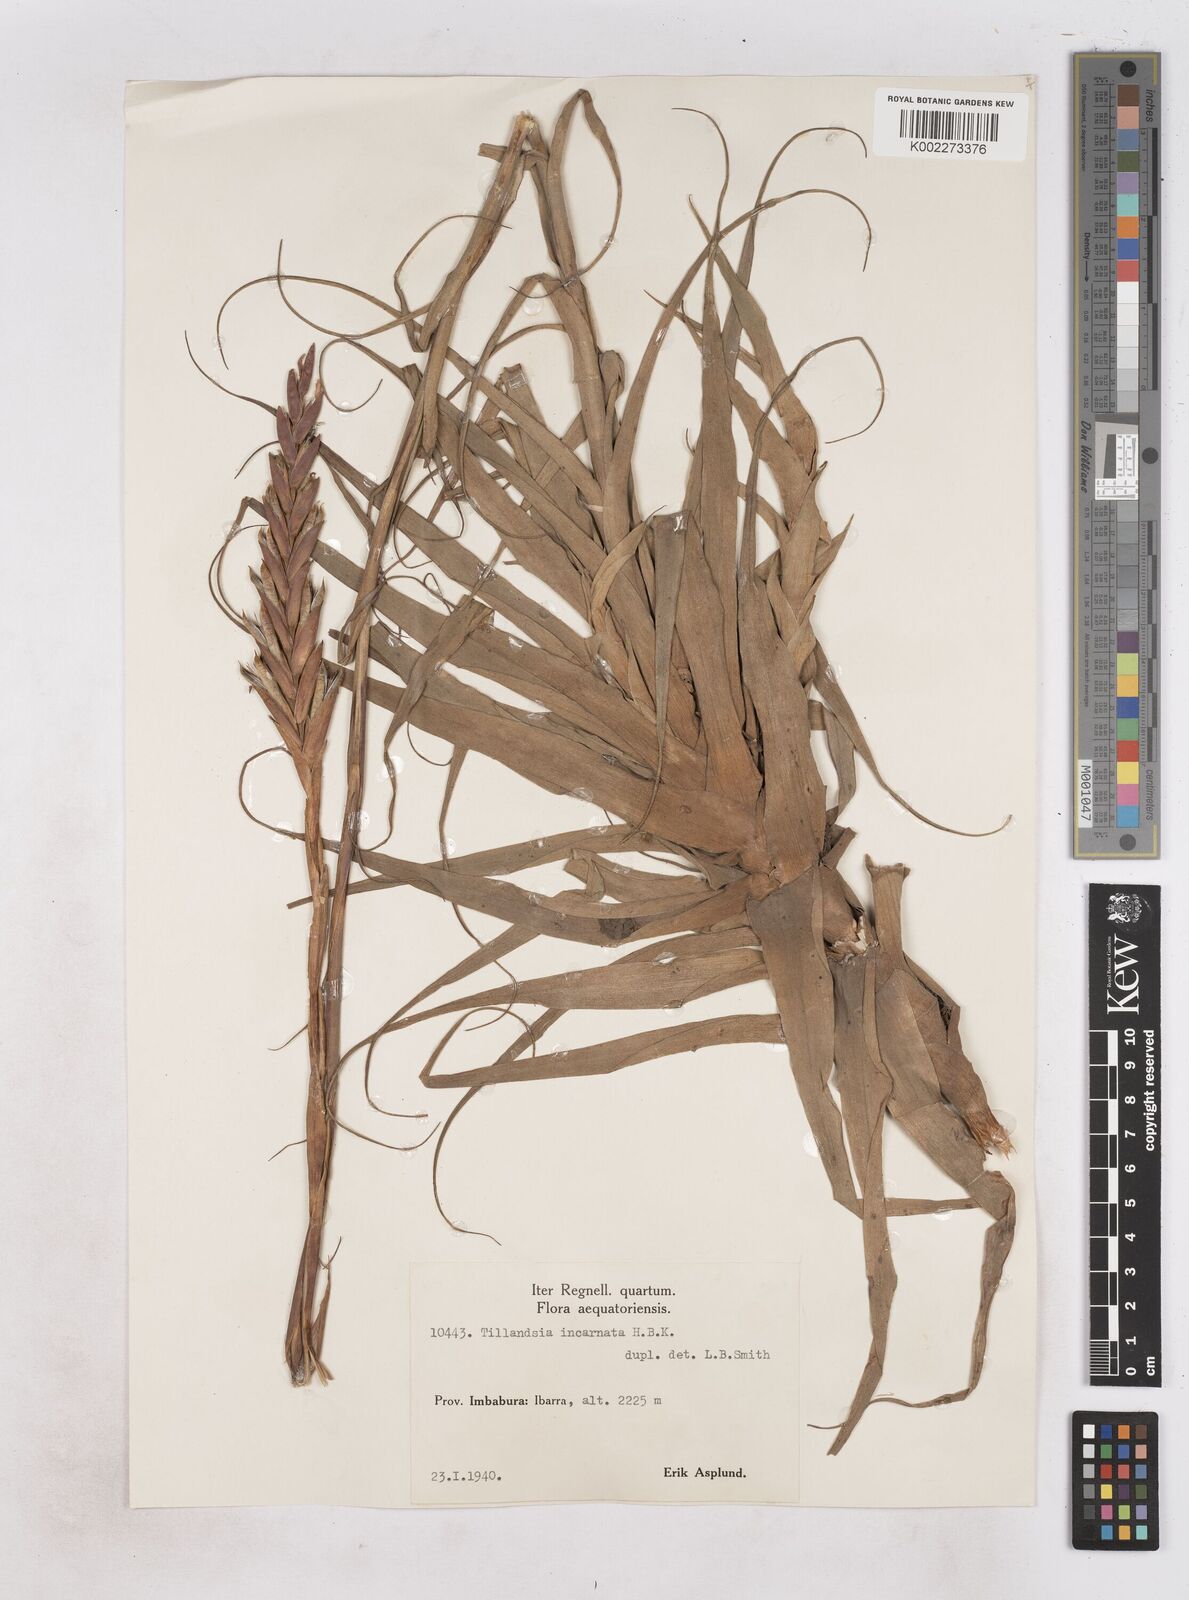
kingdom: Plantae
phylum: Tracheophyta
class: Liliopsida
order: Poales
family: Bromeliaceae
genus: Tillandsia
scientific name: Tillandsia incarnata
